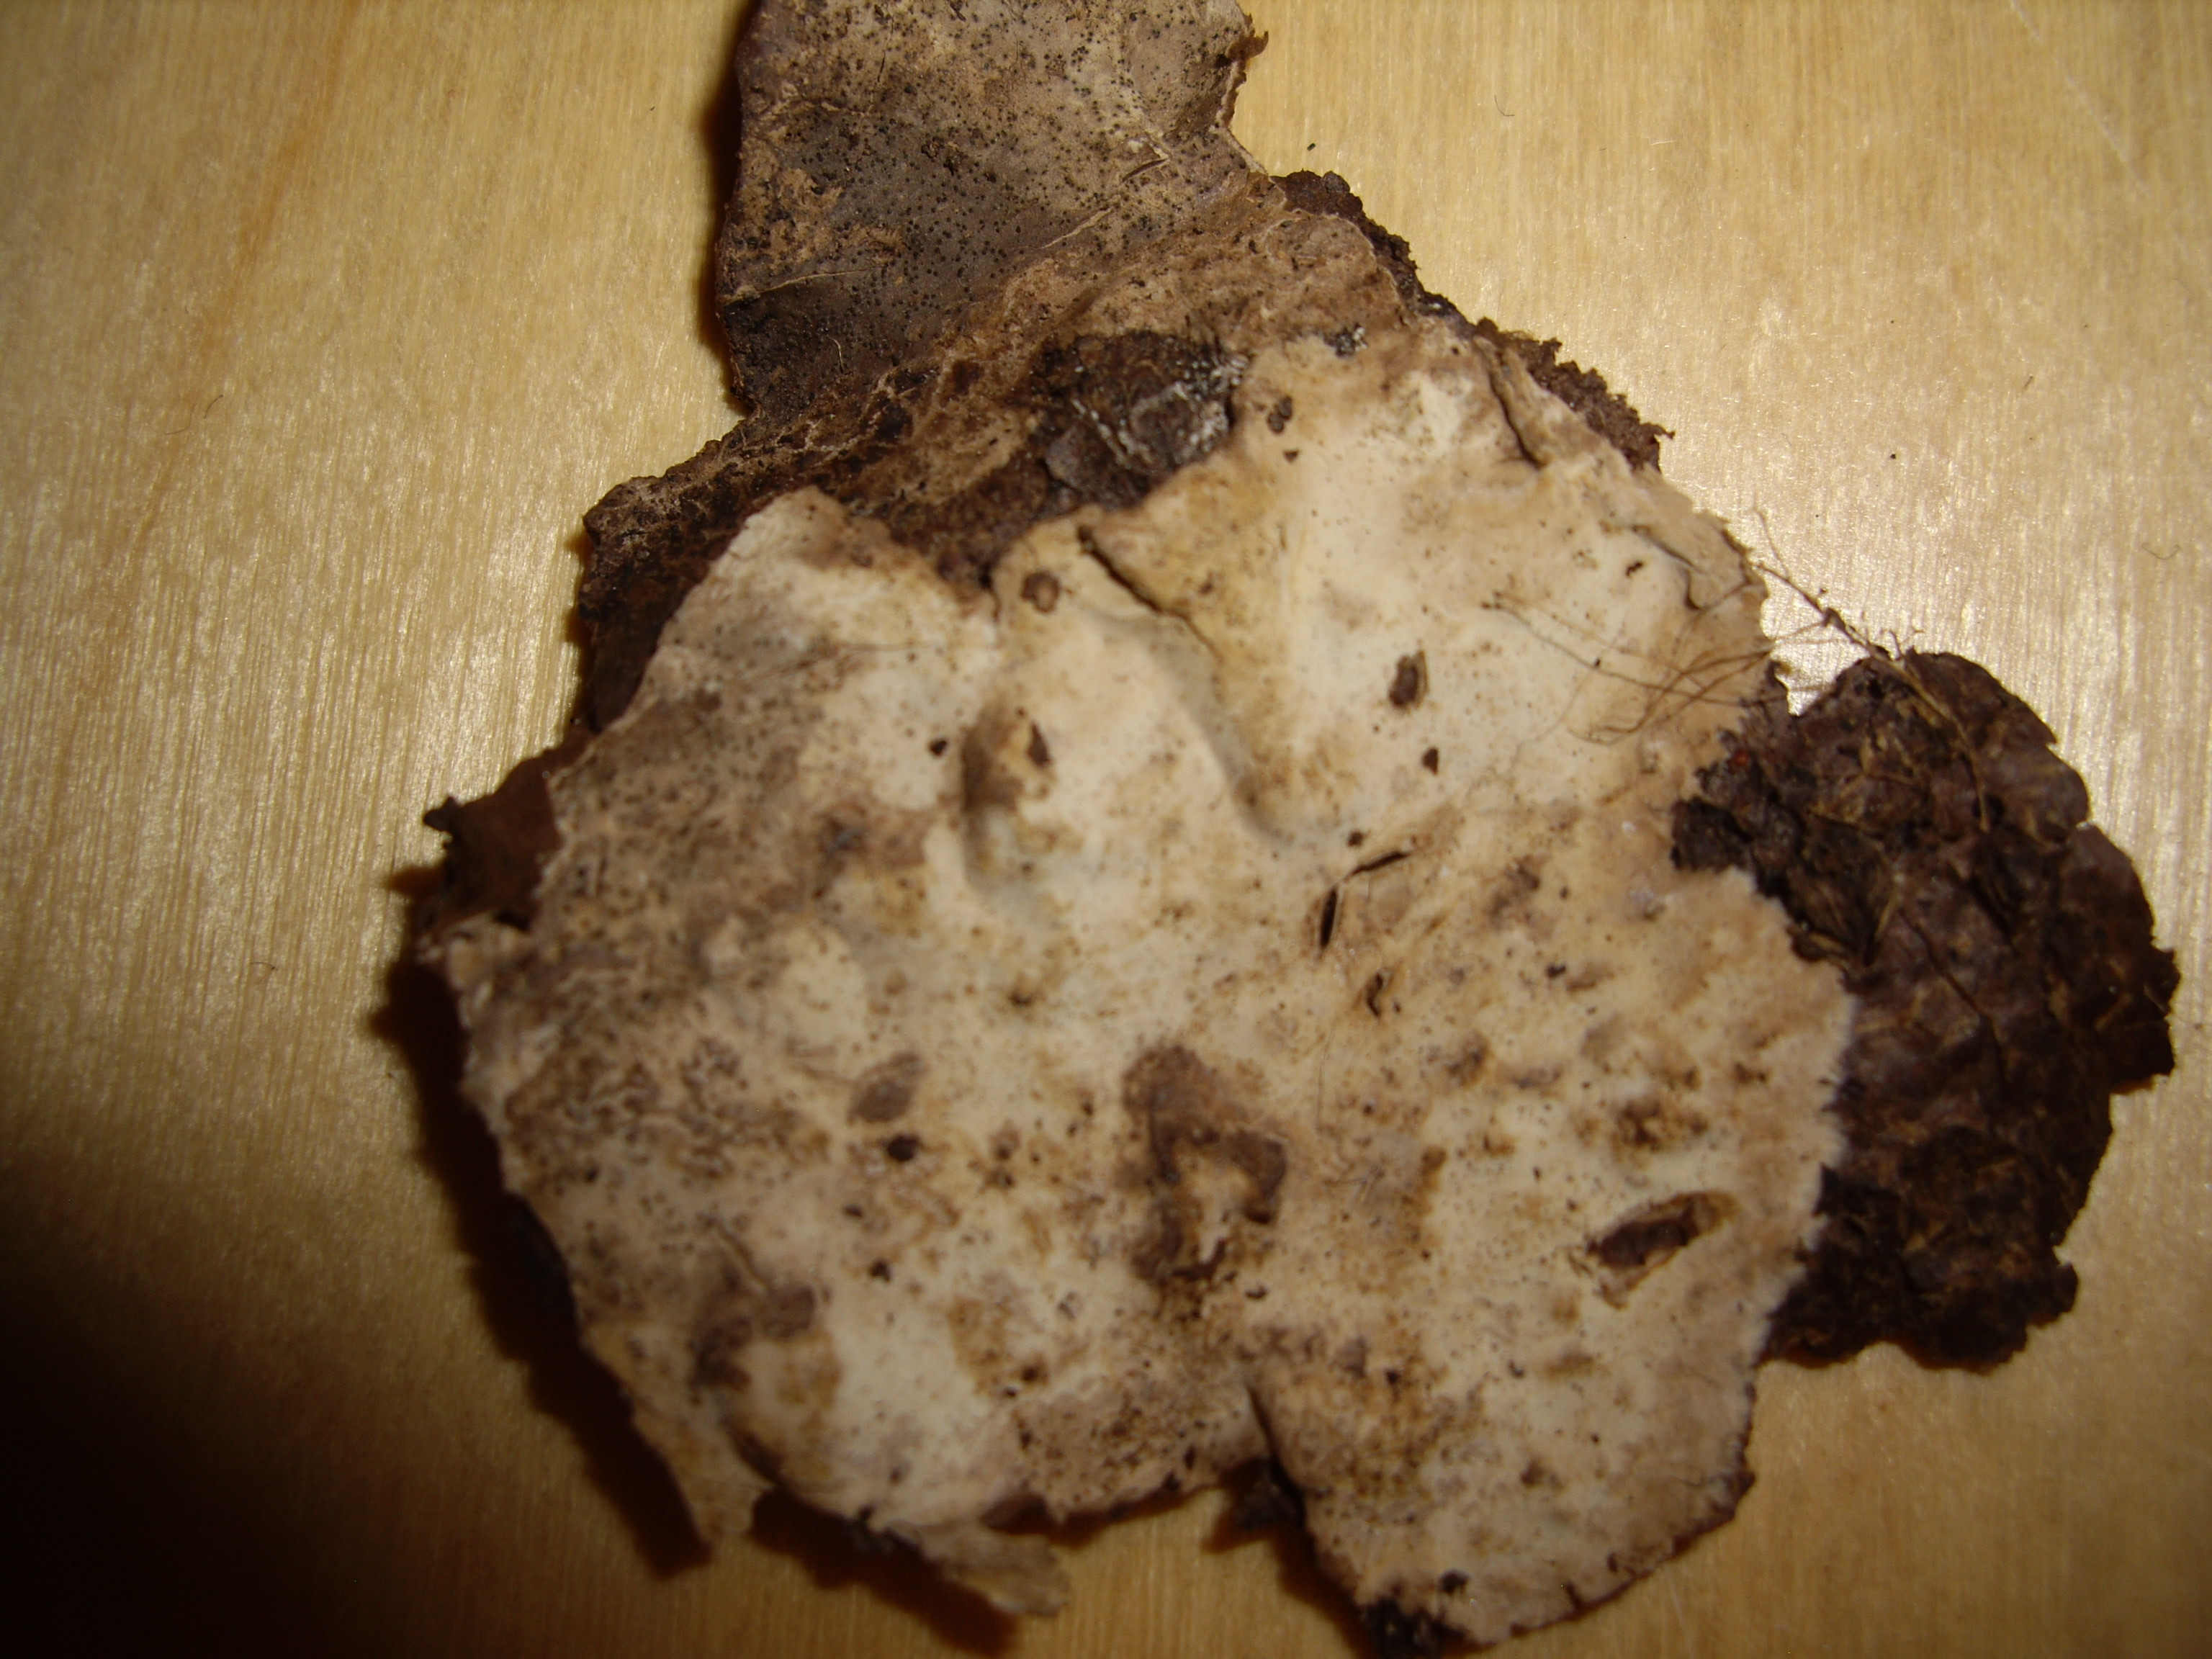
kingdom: Fungi
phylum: Basidiomycota
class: Agaricomycetes
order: Russulales
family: Hericiaceae
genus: Laxitextum
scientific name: Laxitextum bicolor
